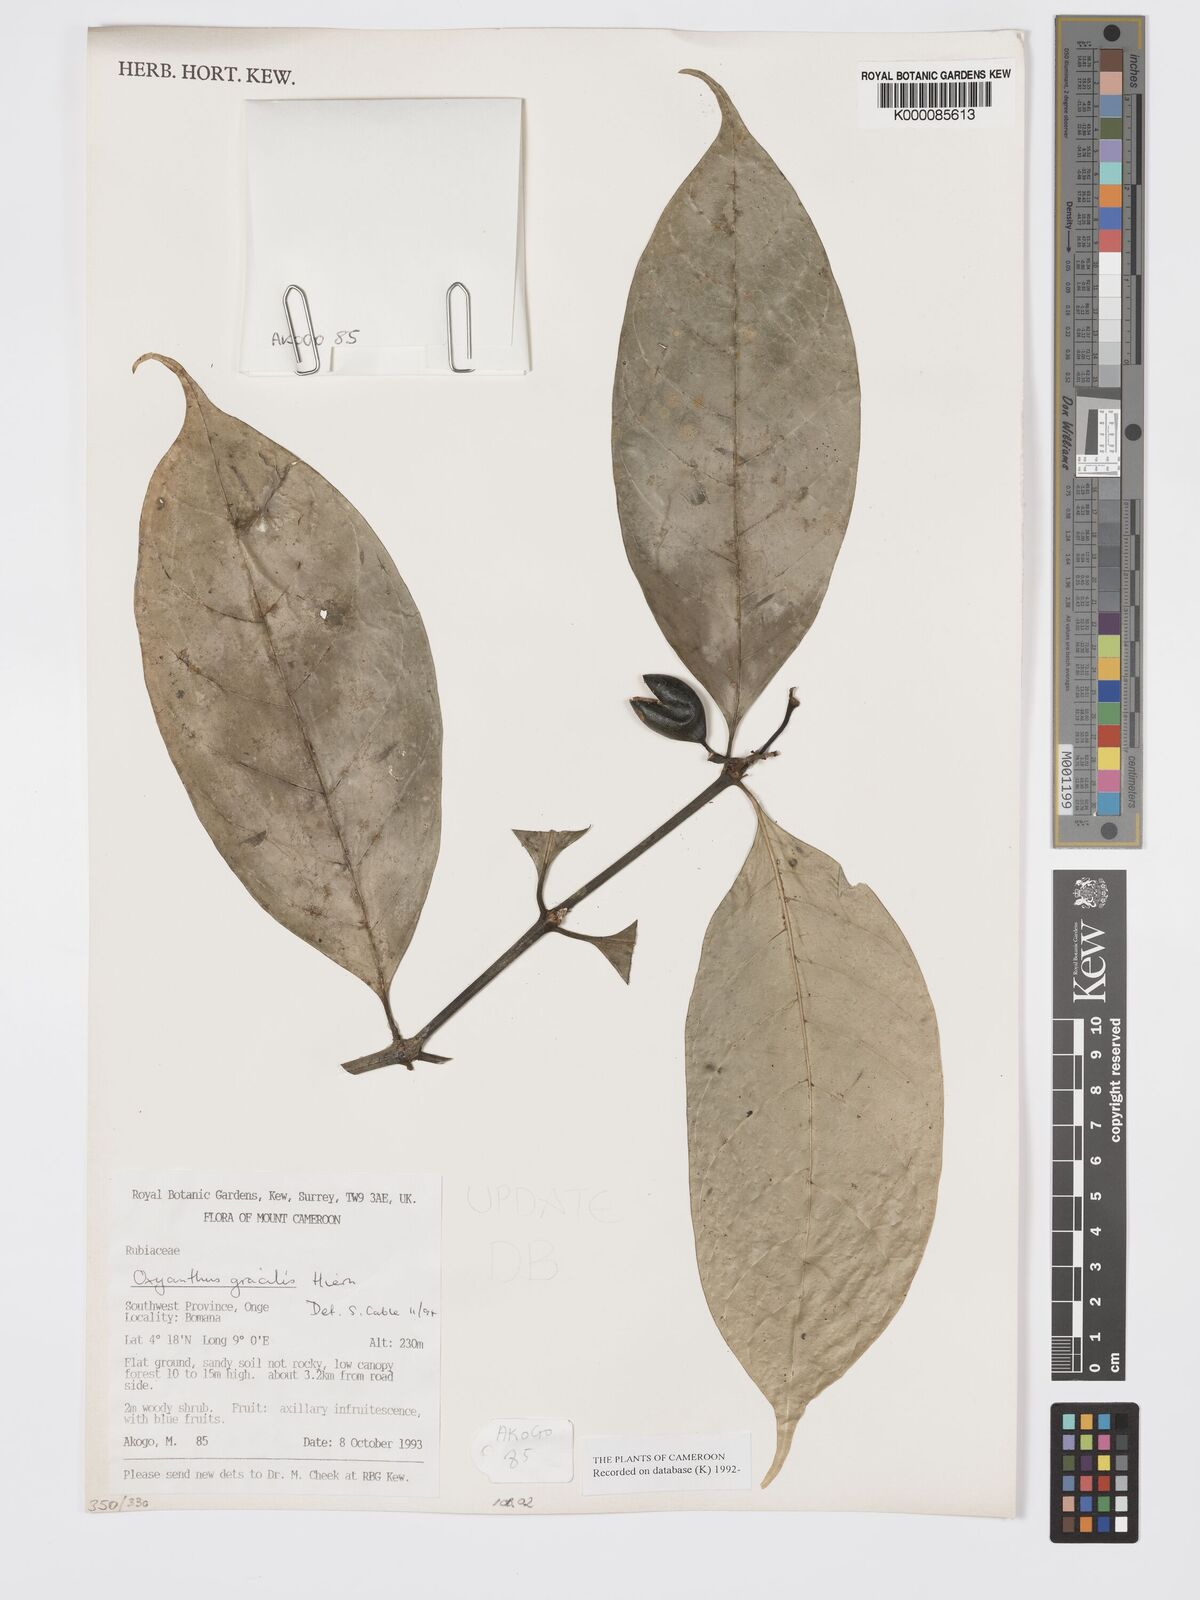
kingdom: Plantae
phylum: Tracheophyta
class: Magnoliopsida
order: Gentianales
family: Rubiaceae
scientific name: Rubiaceae
